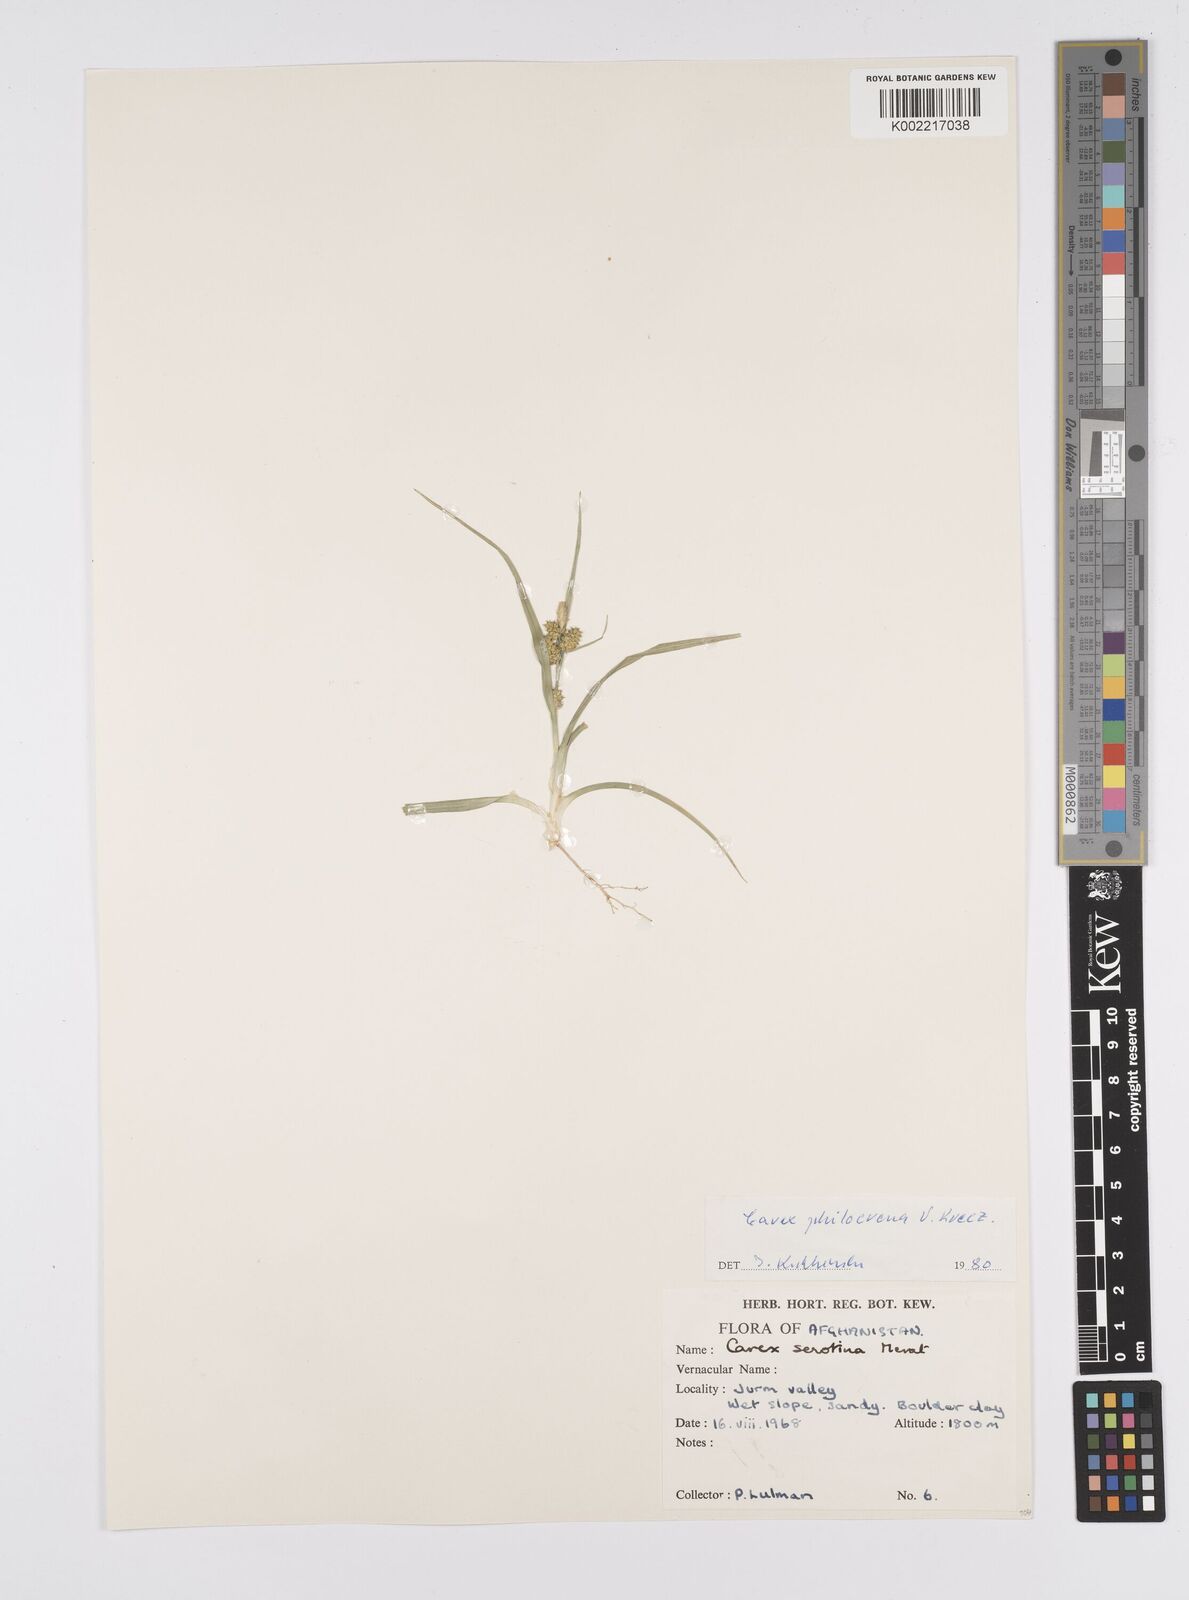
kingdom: Plantae
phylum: Tracheophyta
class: Liliopsida
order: Poales
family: Cyperaceae
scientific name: Cyperaceae
